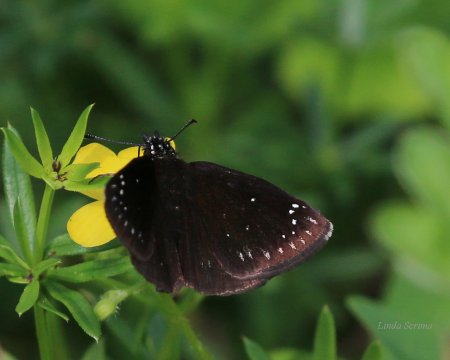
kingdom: Animalia
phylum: Arthropoda
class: Insecta
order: Lepidoptera
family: Hesperiidae
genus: Pholisora
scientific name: Pholisora catullus
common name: Common Sootywing
